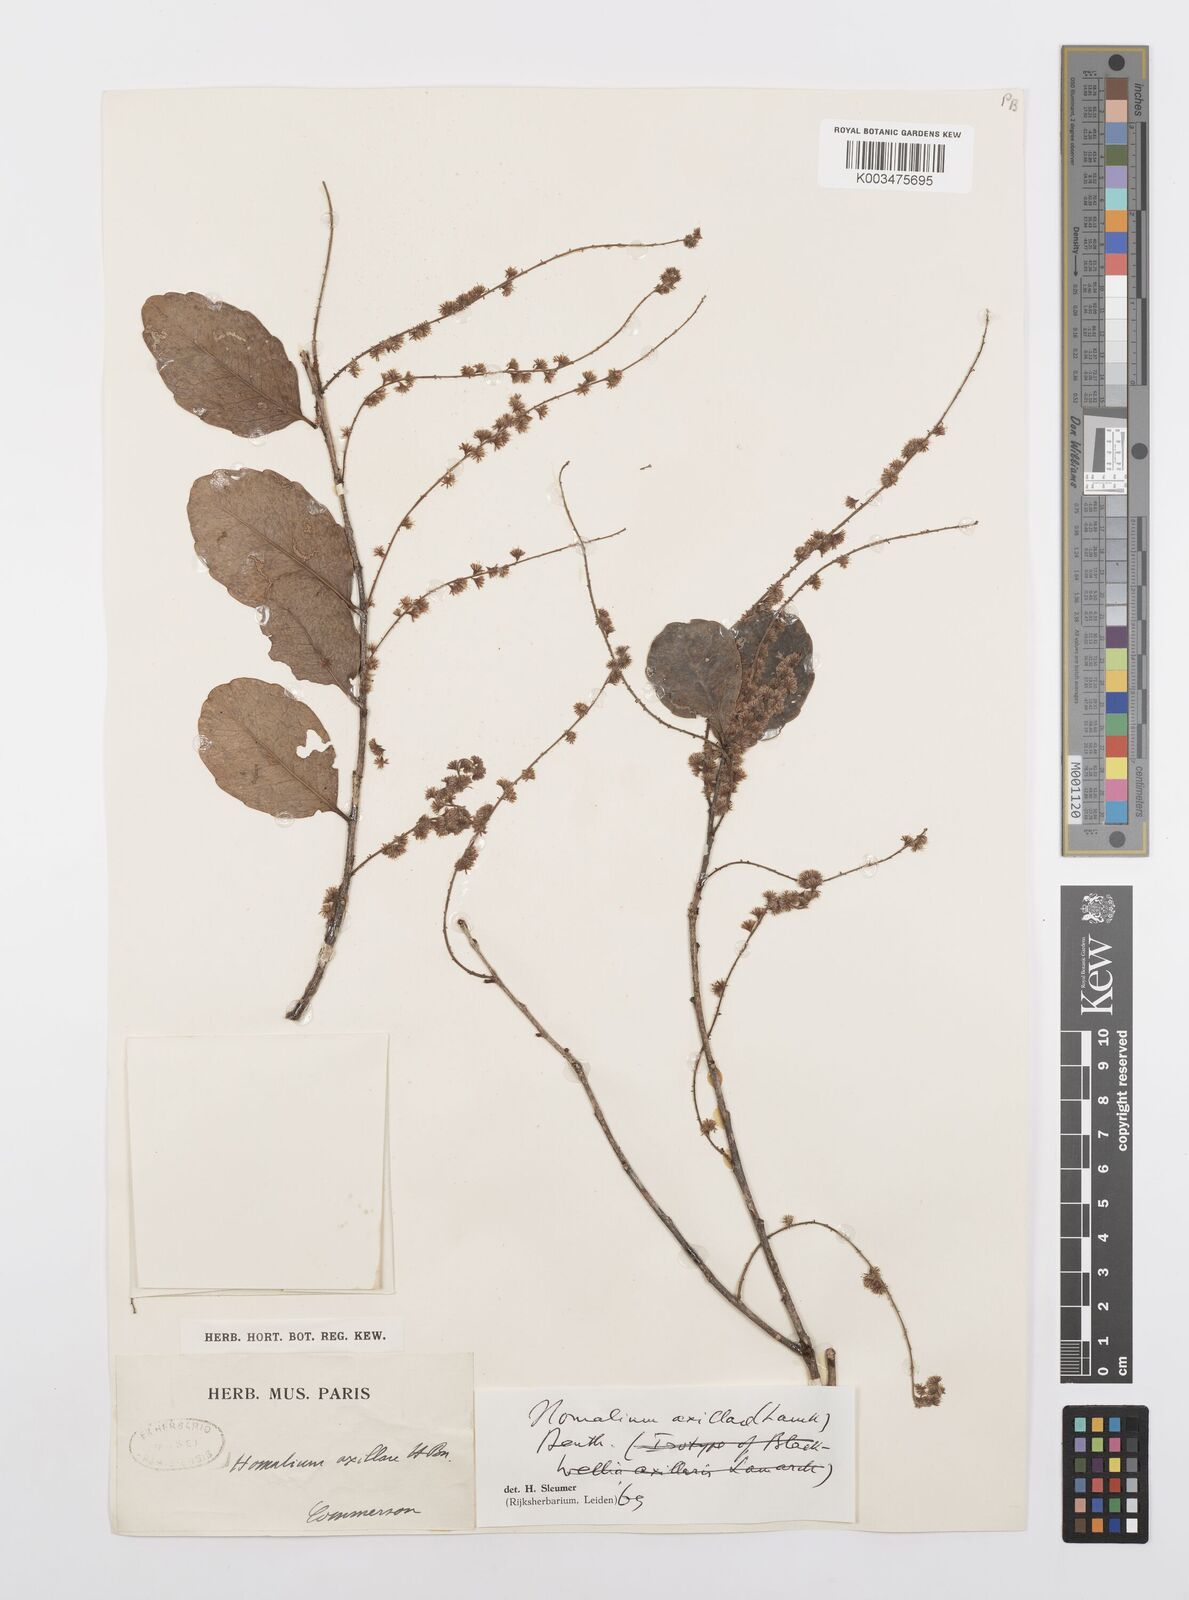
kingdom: Plantae
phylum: Tracheophyta
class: Magnoliopsida
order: Malpighiales
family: Salicaceae
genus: Homalium
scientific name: Homalium axillare
